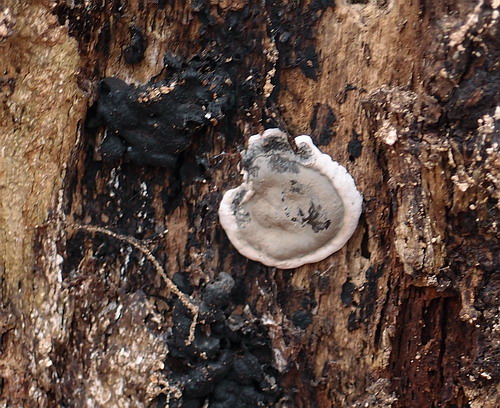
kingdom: Fungi
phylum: Ascomycota
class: Sordariomycetes
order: Xylariales
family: Xylariaceae
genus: Kretzschmaria
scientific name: Kretzschmaria deusta
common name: stor kulsvamp
